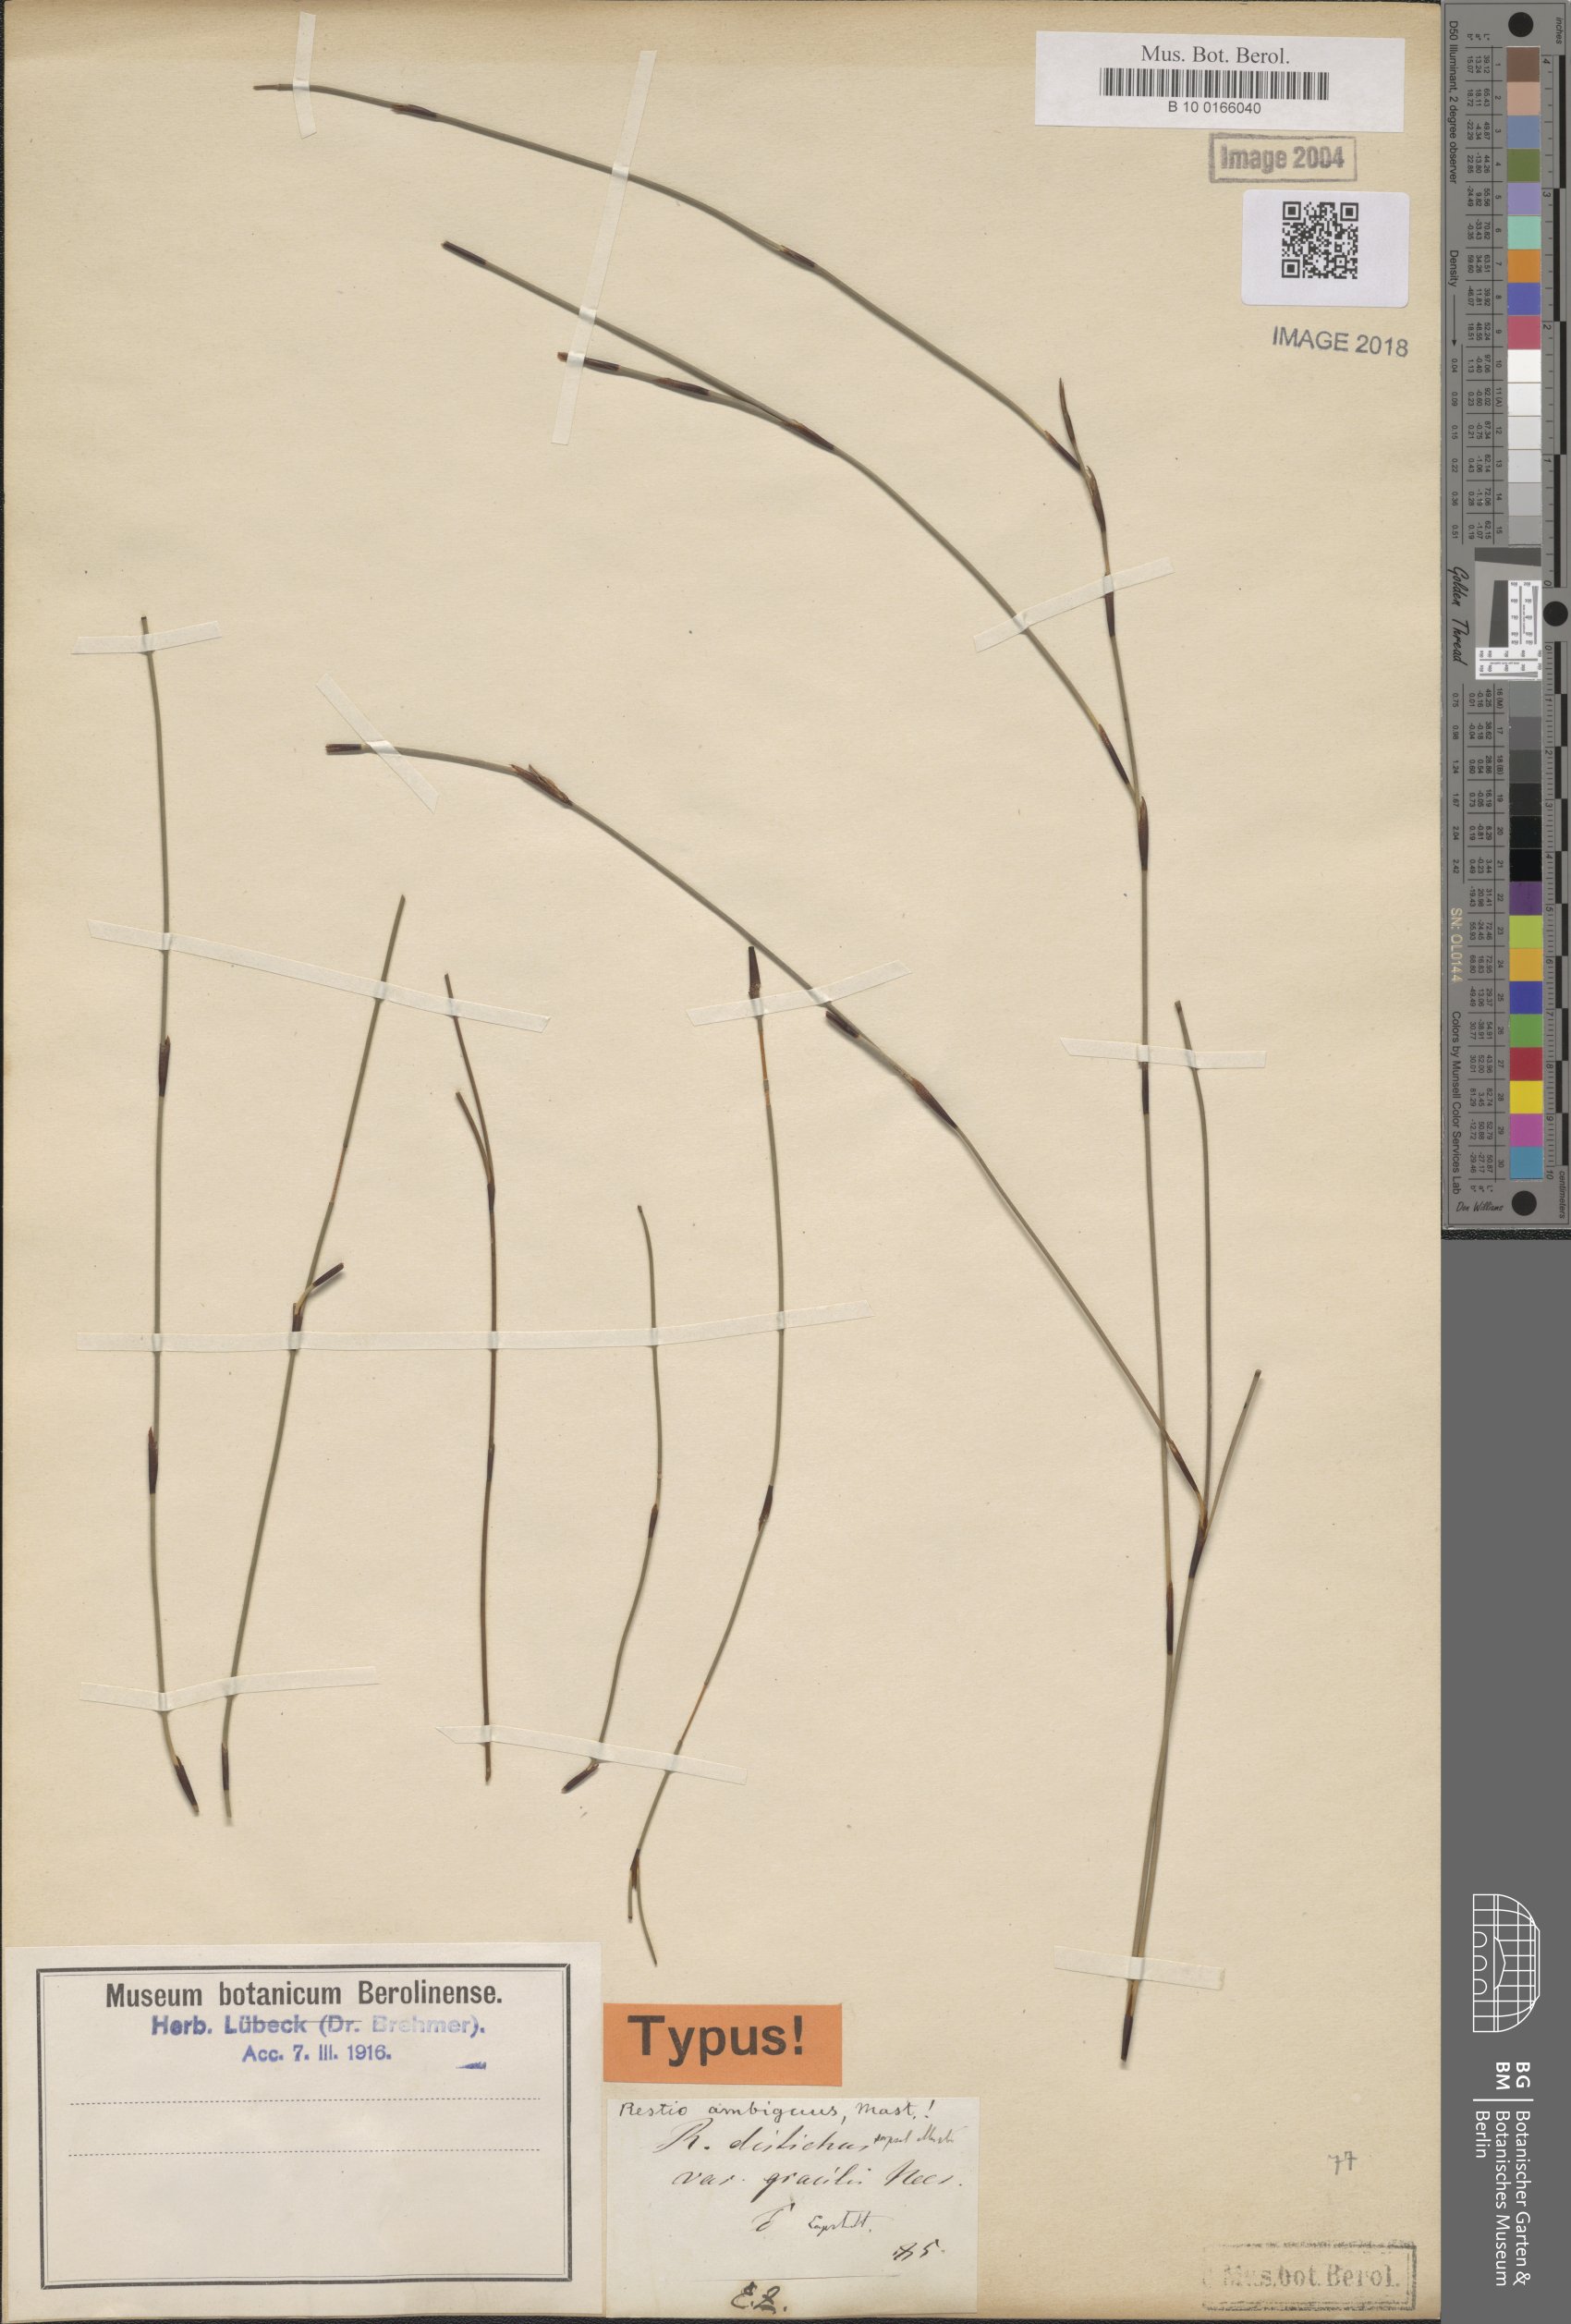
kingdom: Plantae
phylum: Tracheophyta
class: Liliopsida
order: Poales
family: Restionaceae
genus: Elegia
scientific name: Elegia hookeriana
